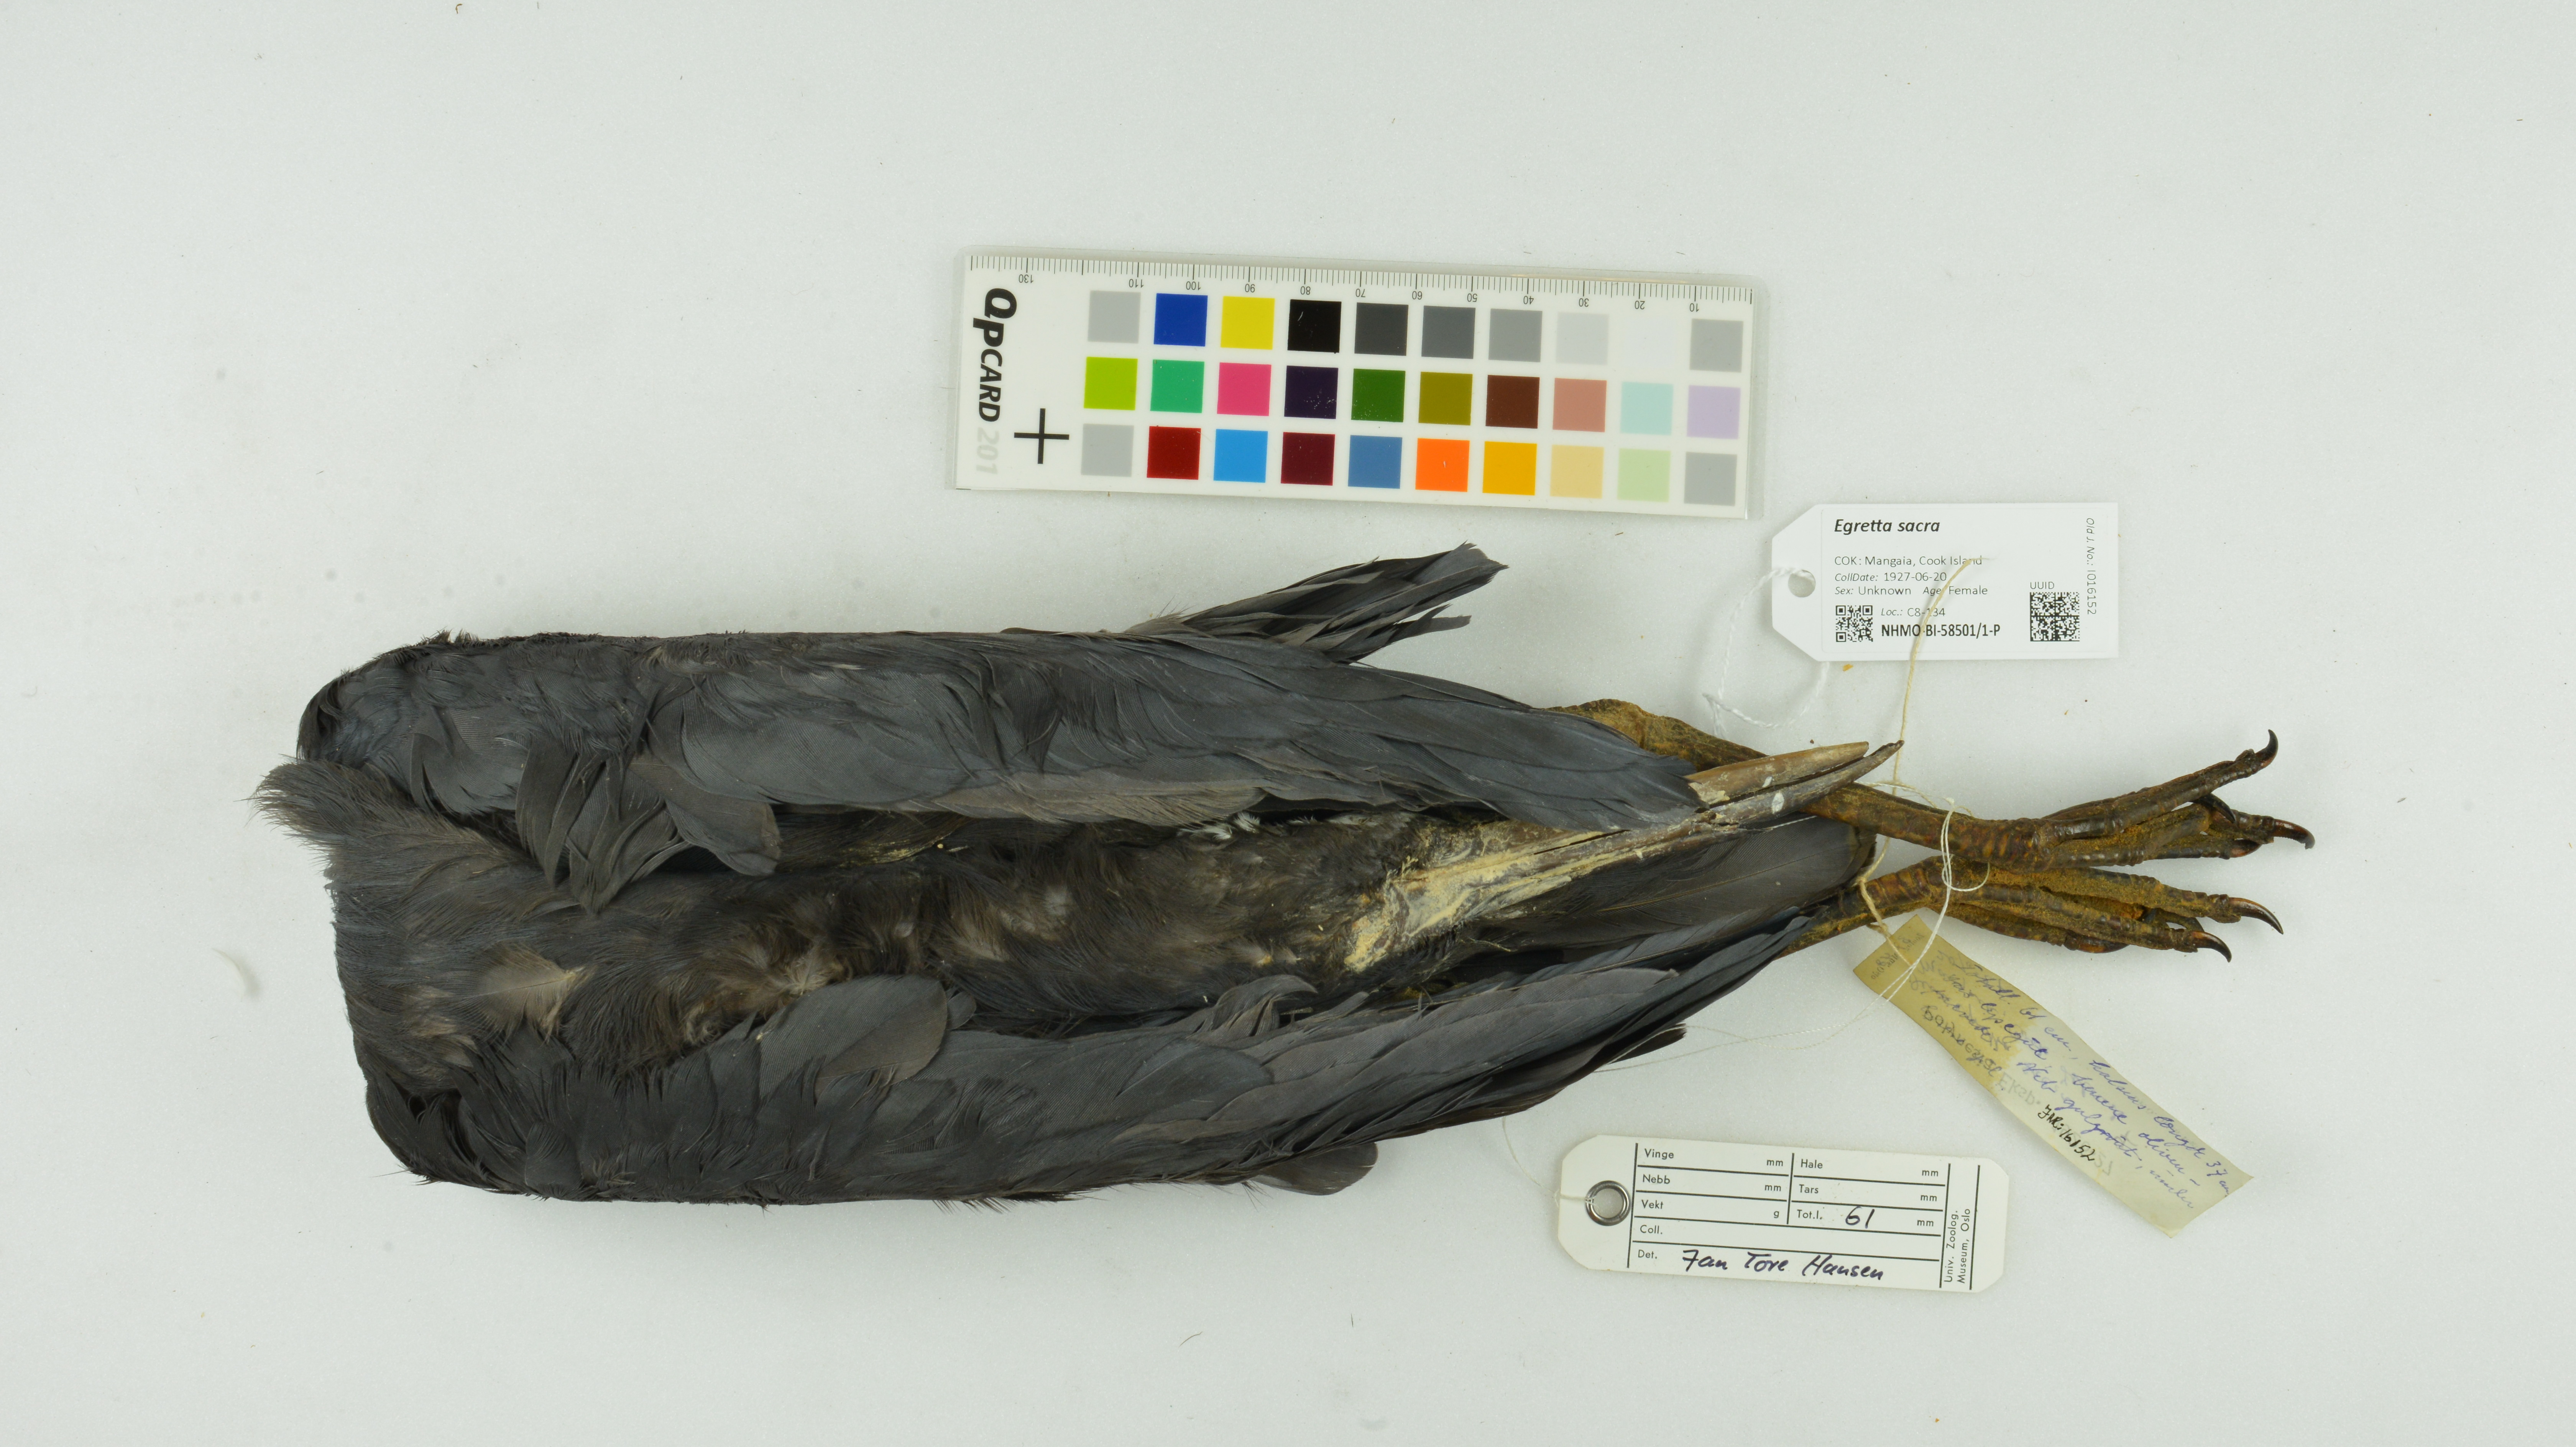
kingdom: Animalia
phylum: Chordata
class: Aves
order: Pelecaniformes
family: Ardeidae
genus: Egretta
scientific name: Egretta sacra
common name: Pacific reef heron
